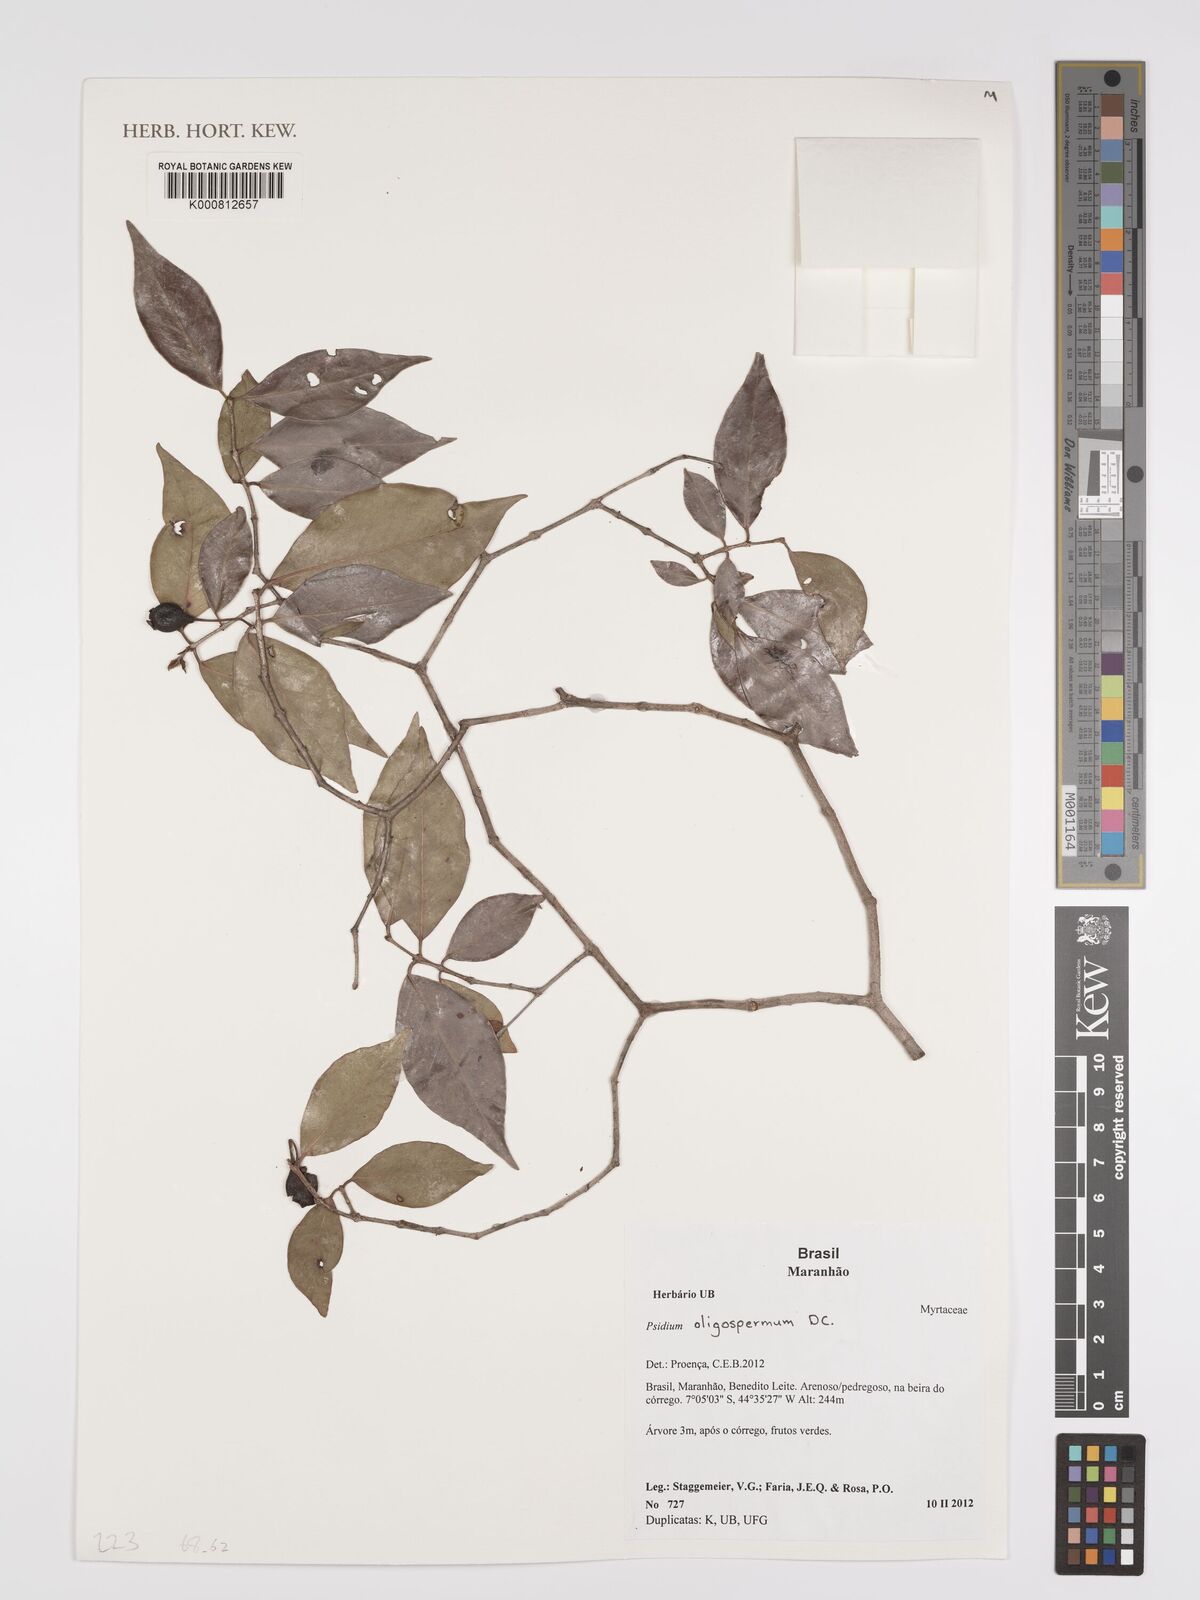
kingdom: Plantae
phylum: Tracheophyta
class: Magnoliopsida
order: Myrtales
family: Myrtaceae
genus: Psidium
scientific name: Psidium oligospermum
